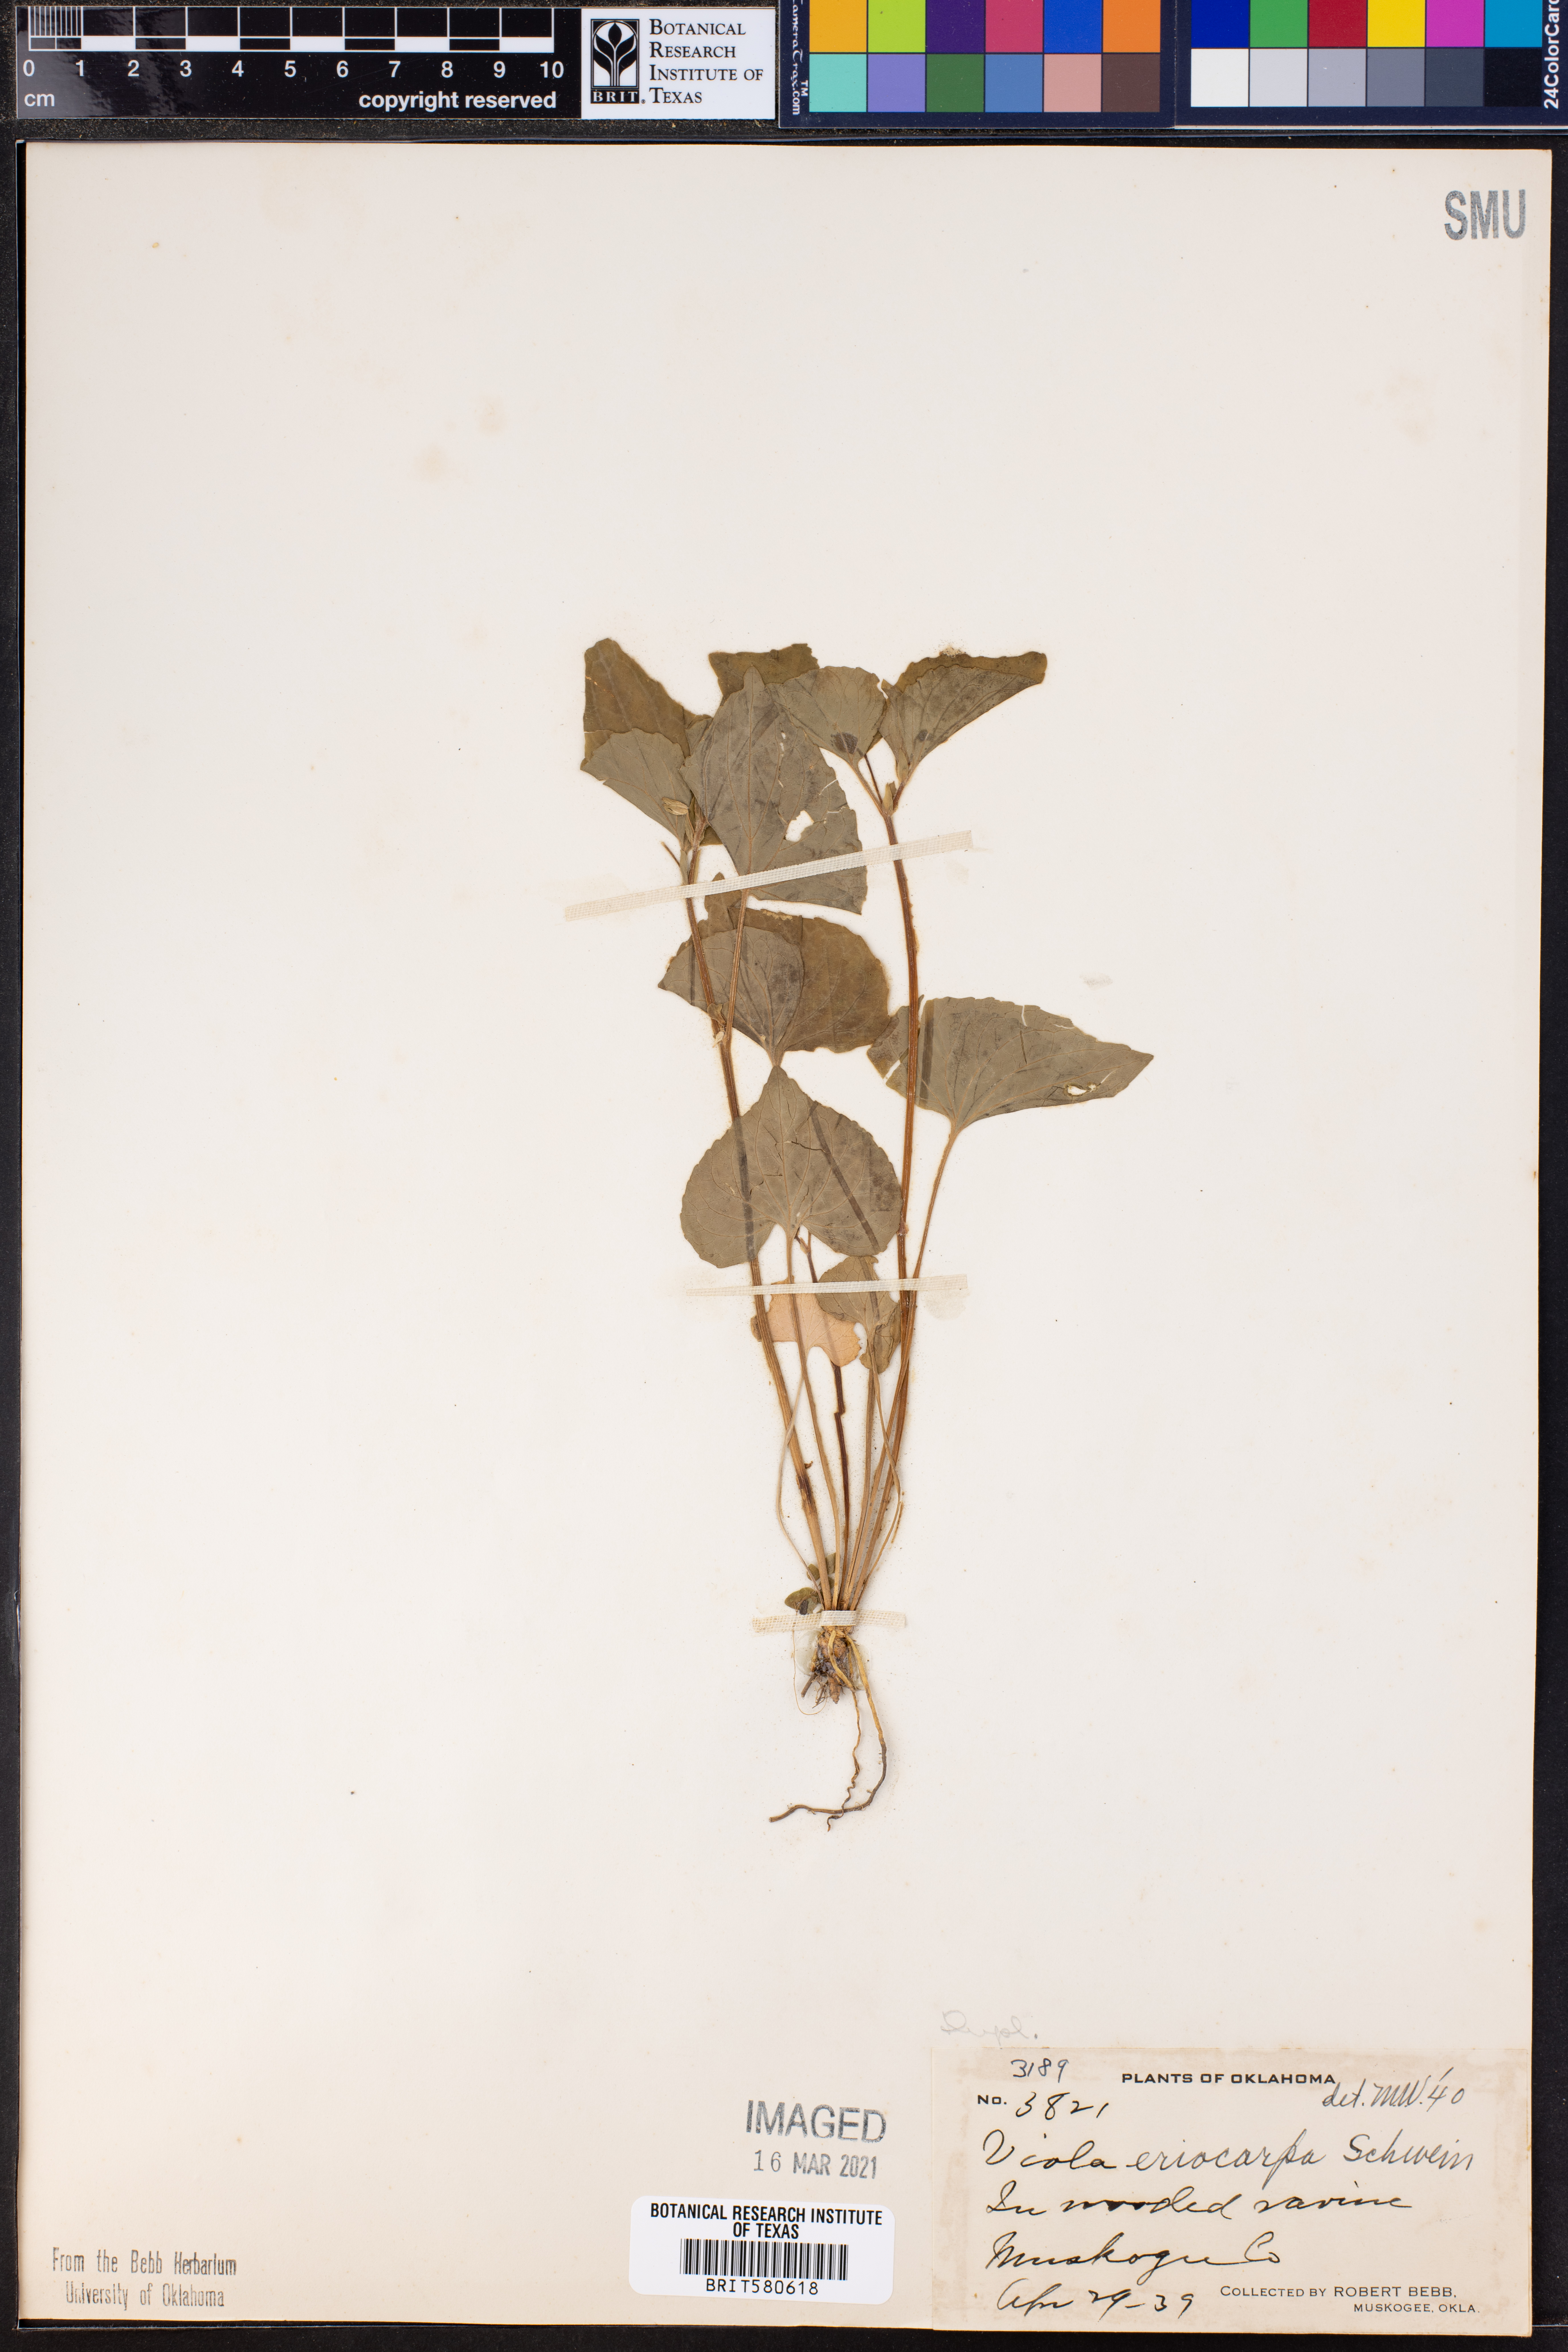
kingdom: Plantae
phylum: Tracheophyta
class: Magnoliopsida
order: Malpighiales
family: Violaceae
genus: Viola
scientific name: Viola eriocarpa
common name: Smooth yellow violet
